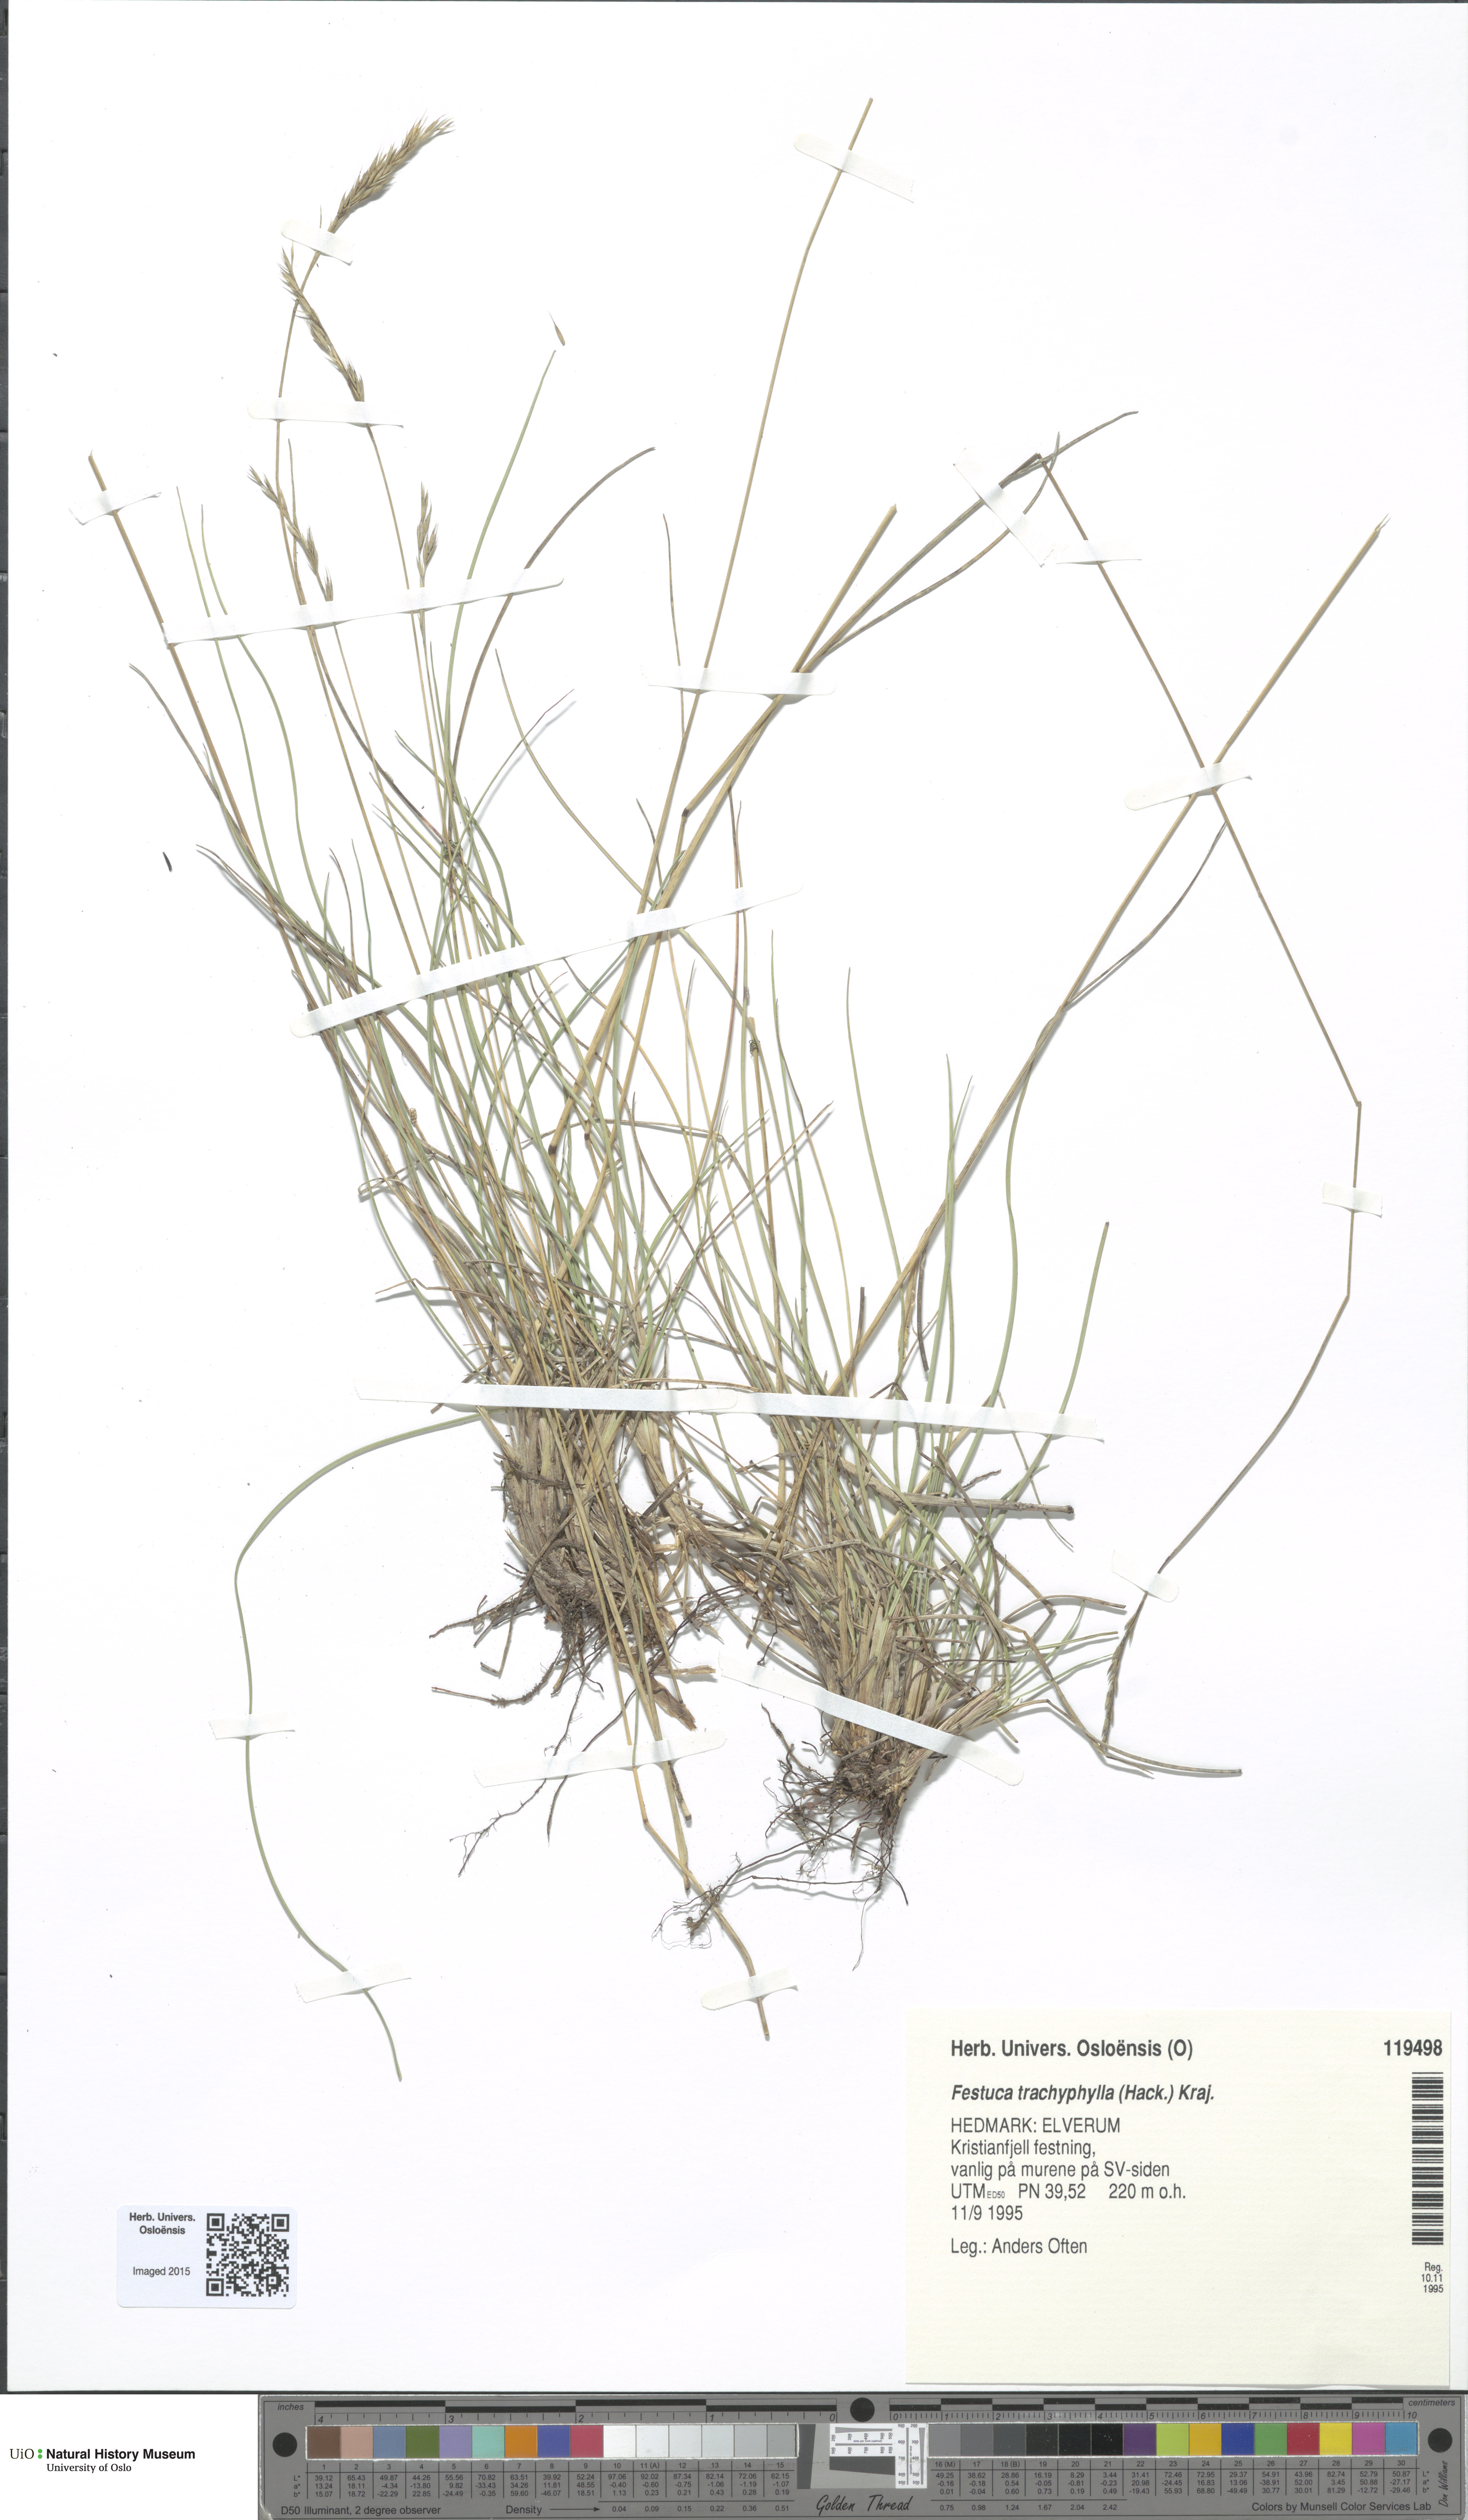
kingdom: Plantae
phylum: Tracheophyta
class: Liliopsida
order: Poales
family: Poaceae
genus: Festuca
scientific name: Festuca trachyphylla
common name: Hard fescue
